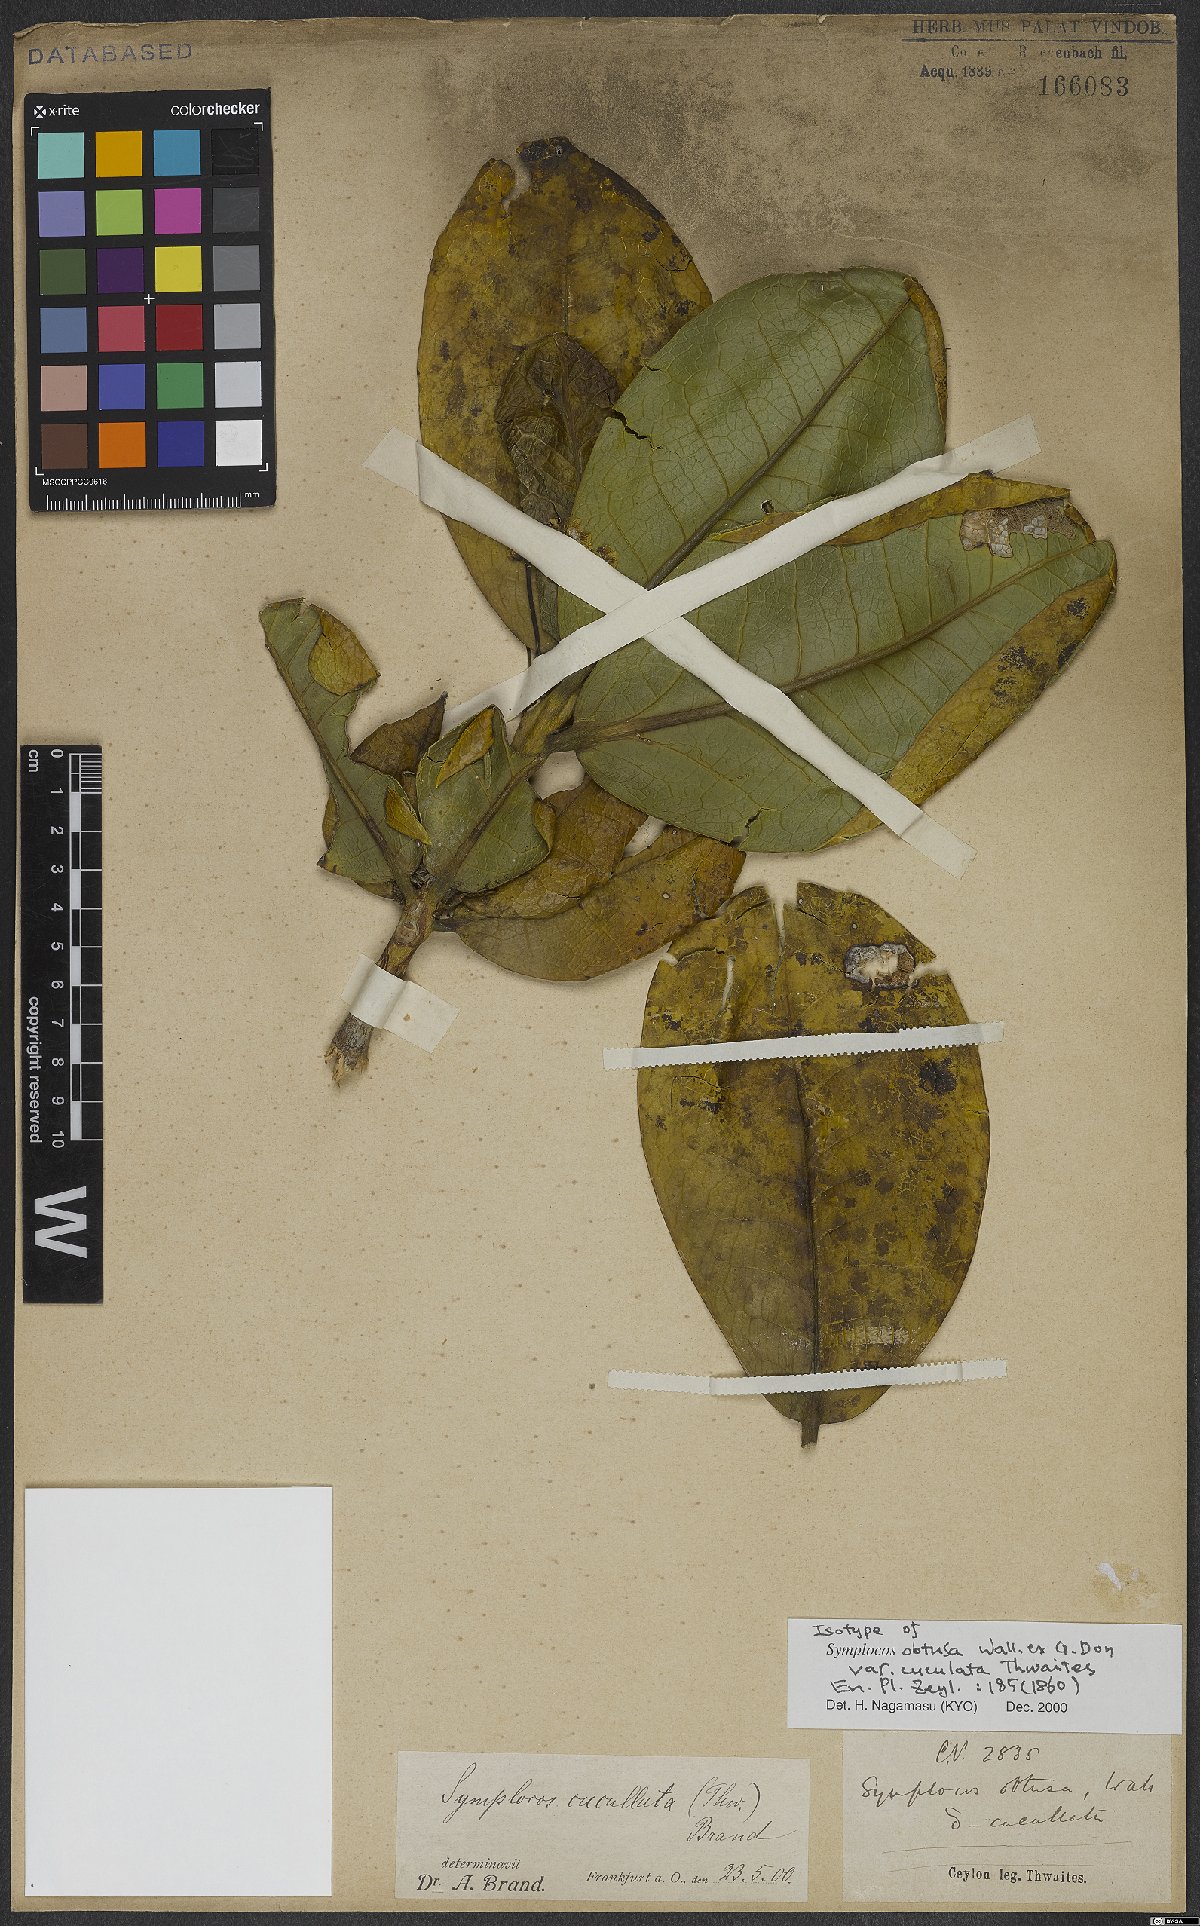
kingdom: Plantae
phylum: Tracheophyta
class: Magnoliopsida
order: Ericales
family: Symplocaceae
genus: Symplocos
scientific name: Symplocos obtusa
